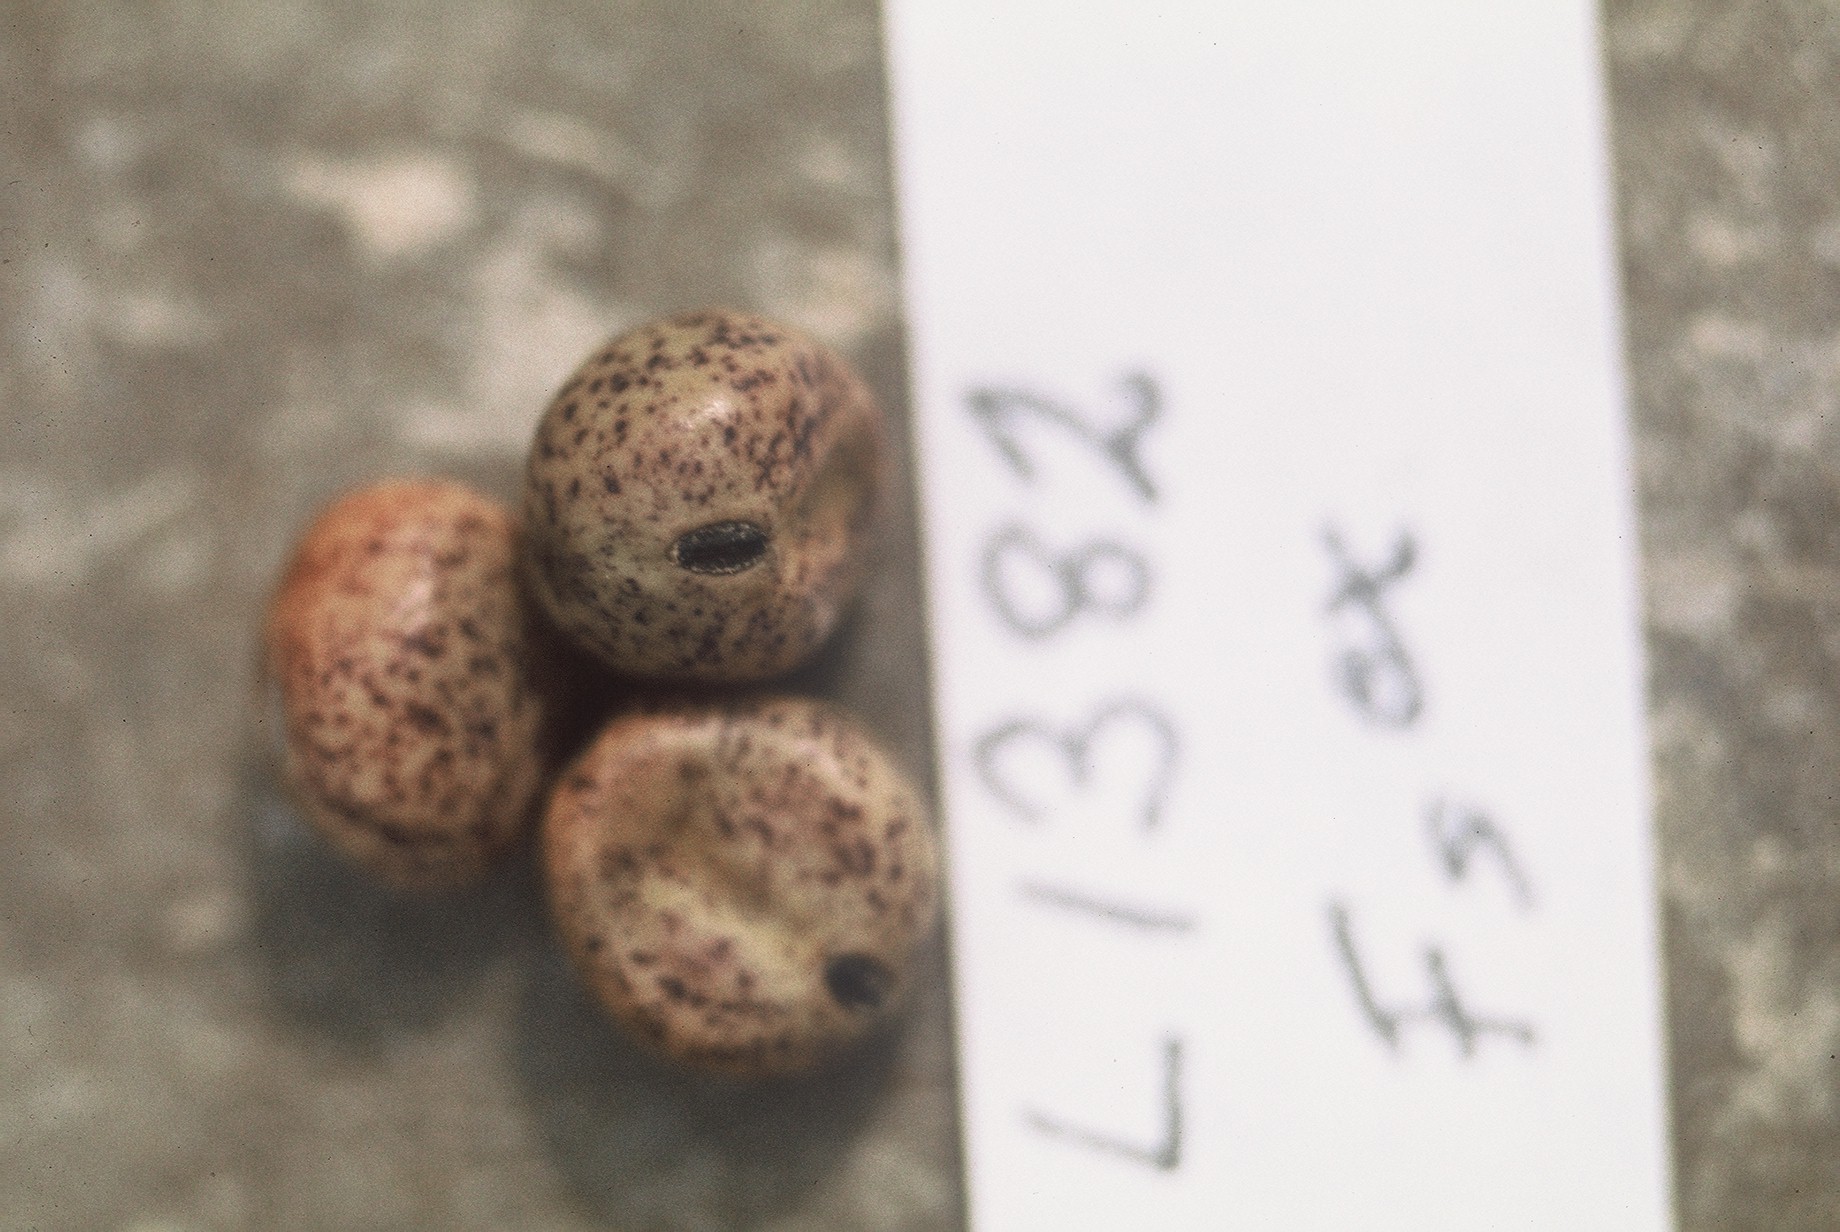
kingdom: Plantae
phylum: Tracheophyta
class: Magnoliopsida
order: Fabales
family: Fabaceae
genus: Lathyrus
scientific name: Lathyrus oleraceus
